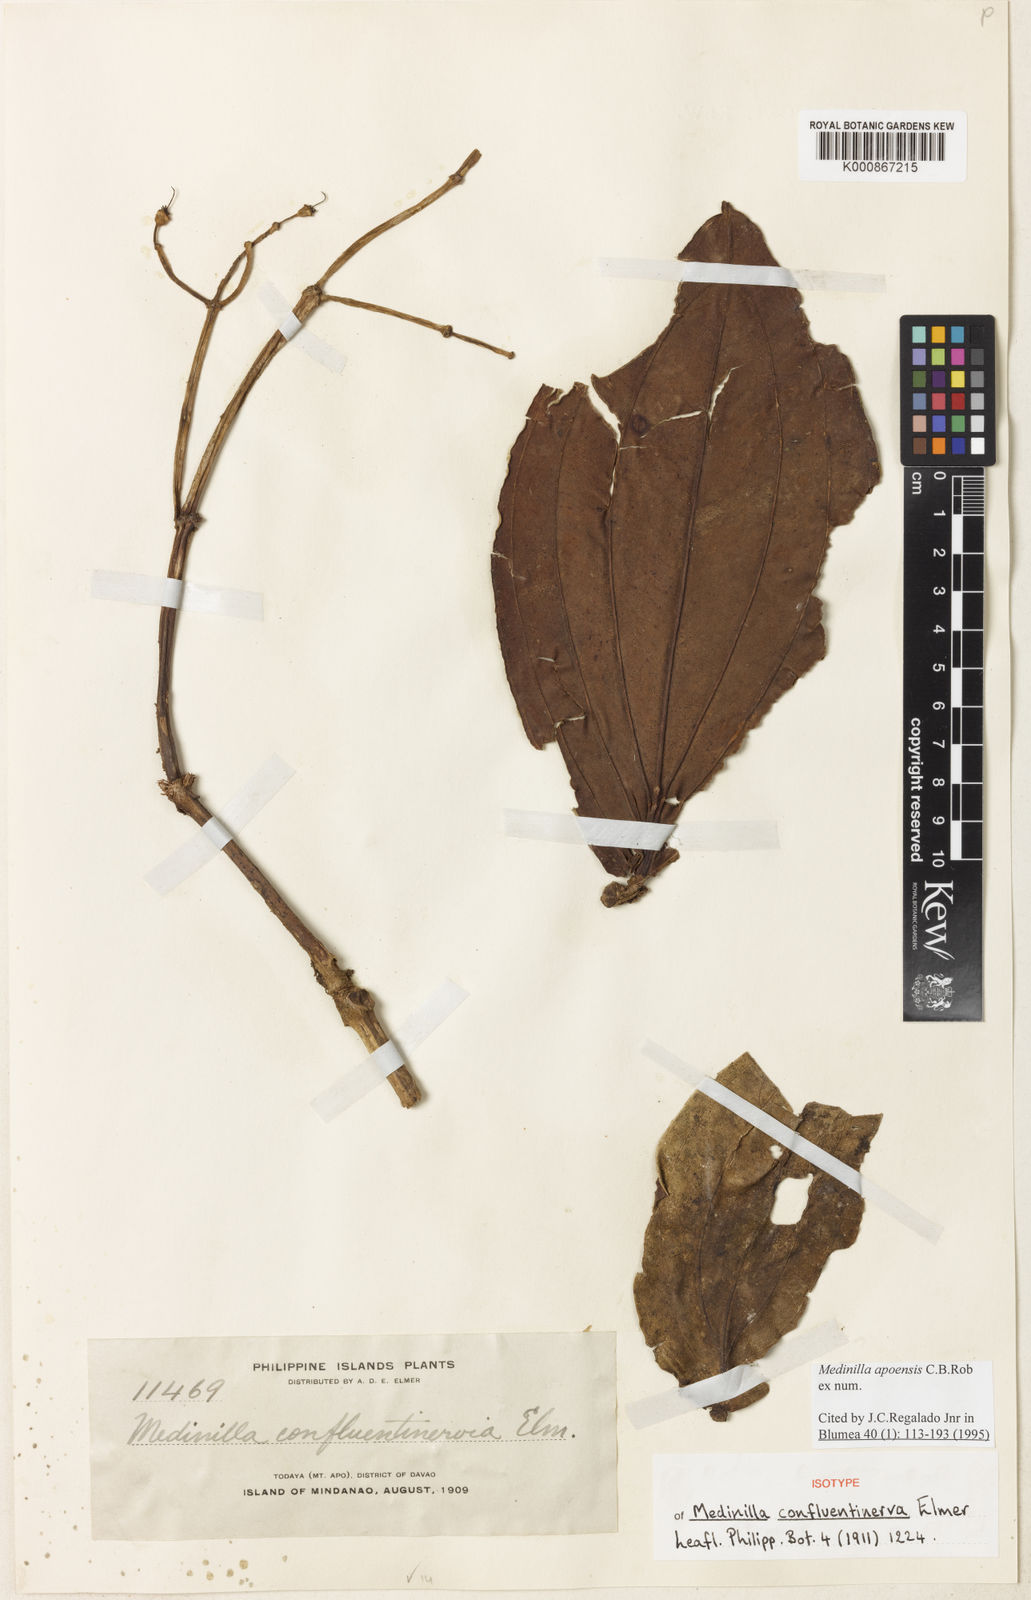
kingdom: Plantae
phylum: Tracheophyta
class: Magnoliopsida
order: Myrtales
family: Melastomataceae
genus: Medinilla
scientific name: Medinilla apoensis
